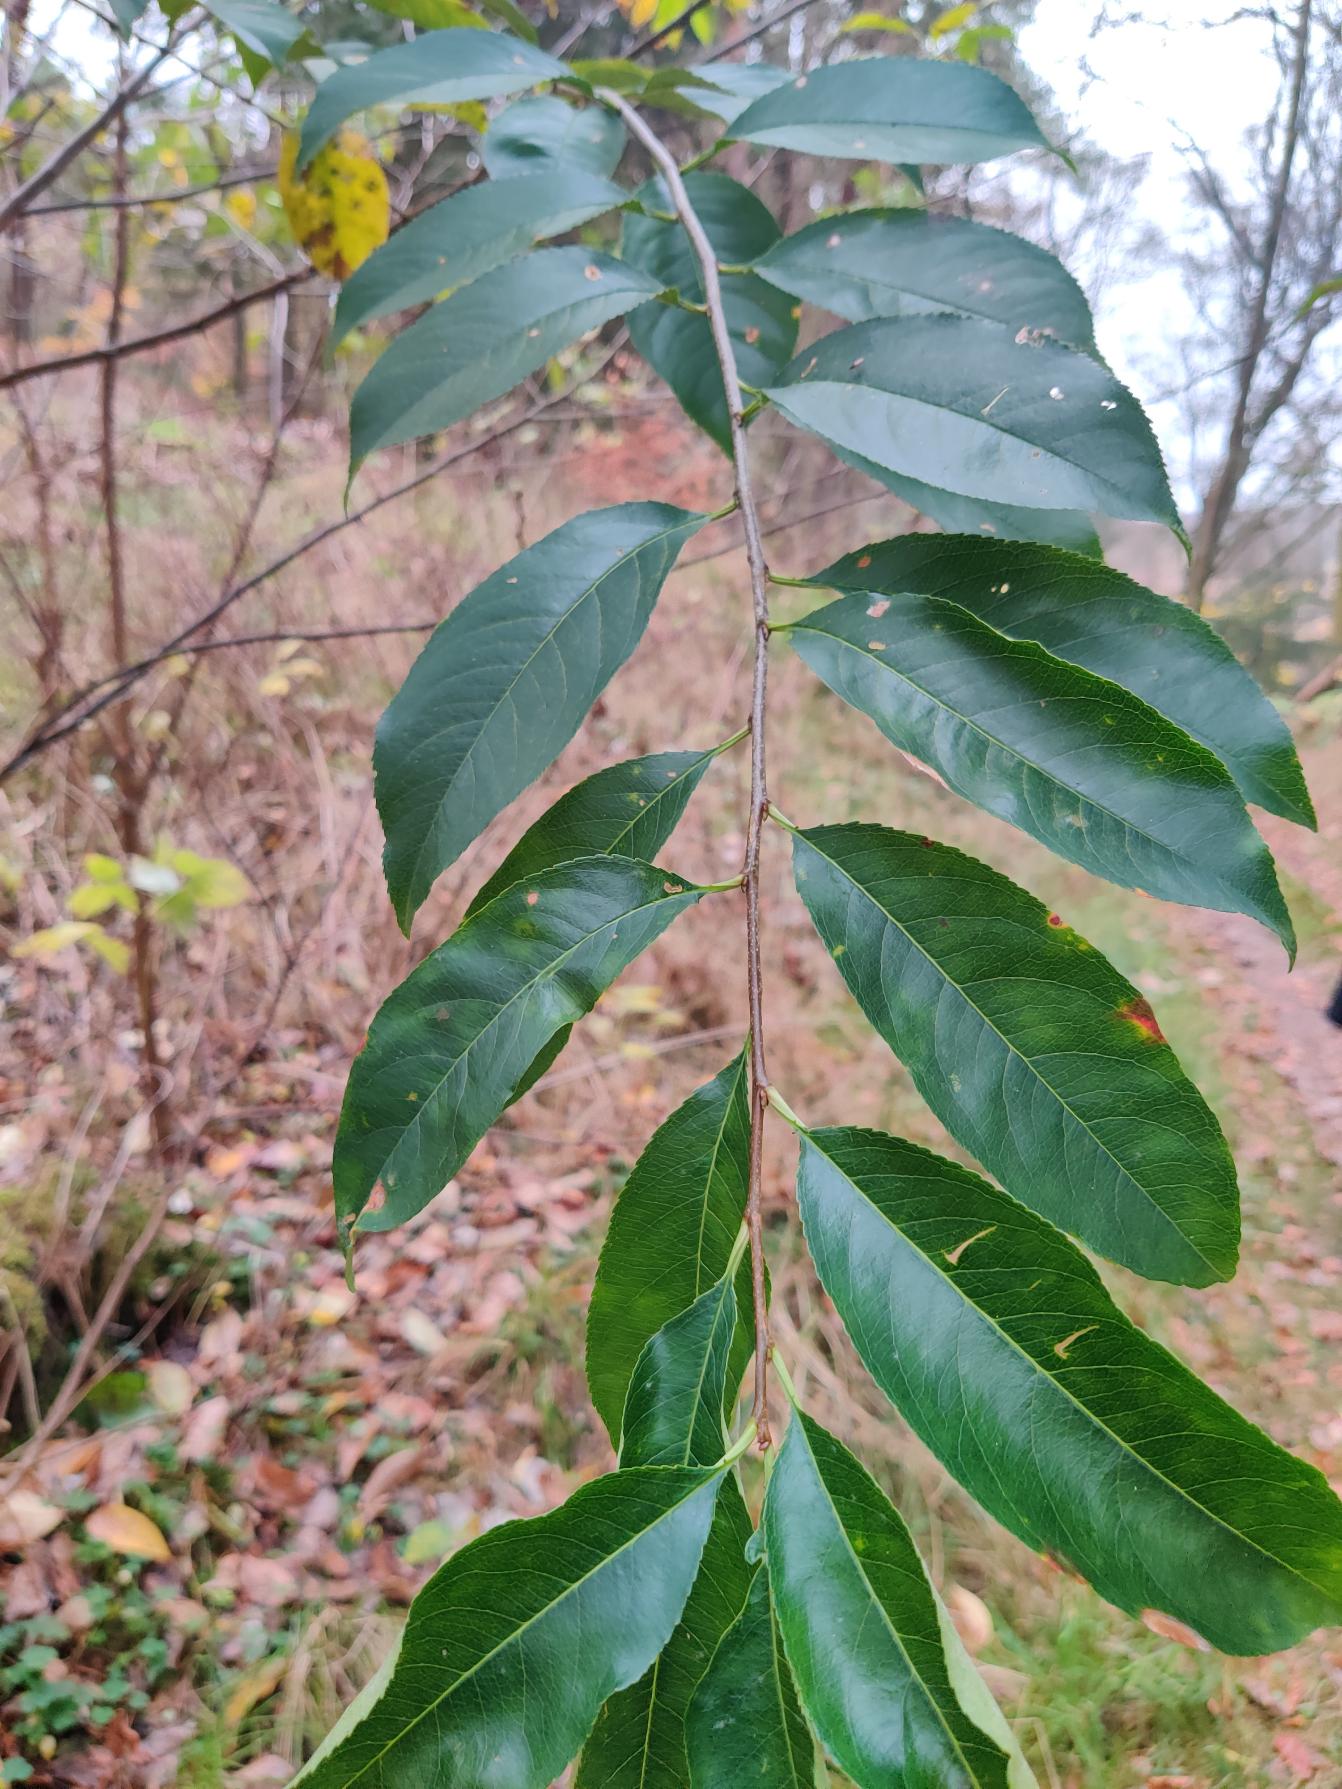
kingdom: Plantae
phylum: Tracheophyta
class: Magnoliopsida
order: Rosales
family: Rosaceae
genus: Prunus
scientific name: Prunus serotina
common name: Glansbladet hæg
